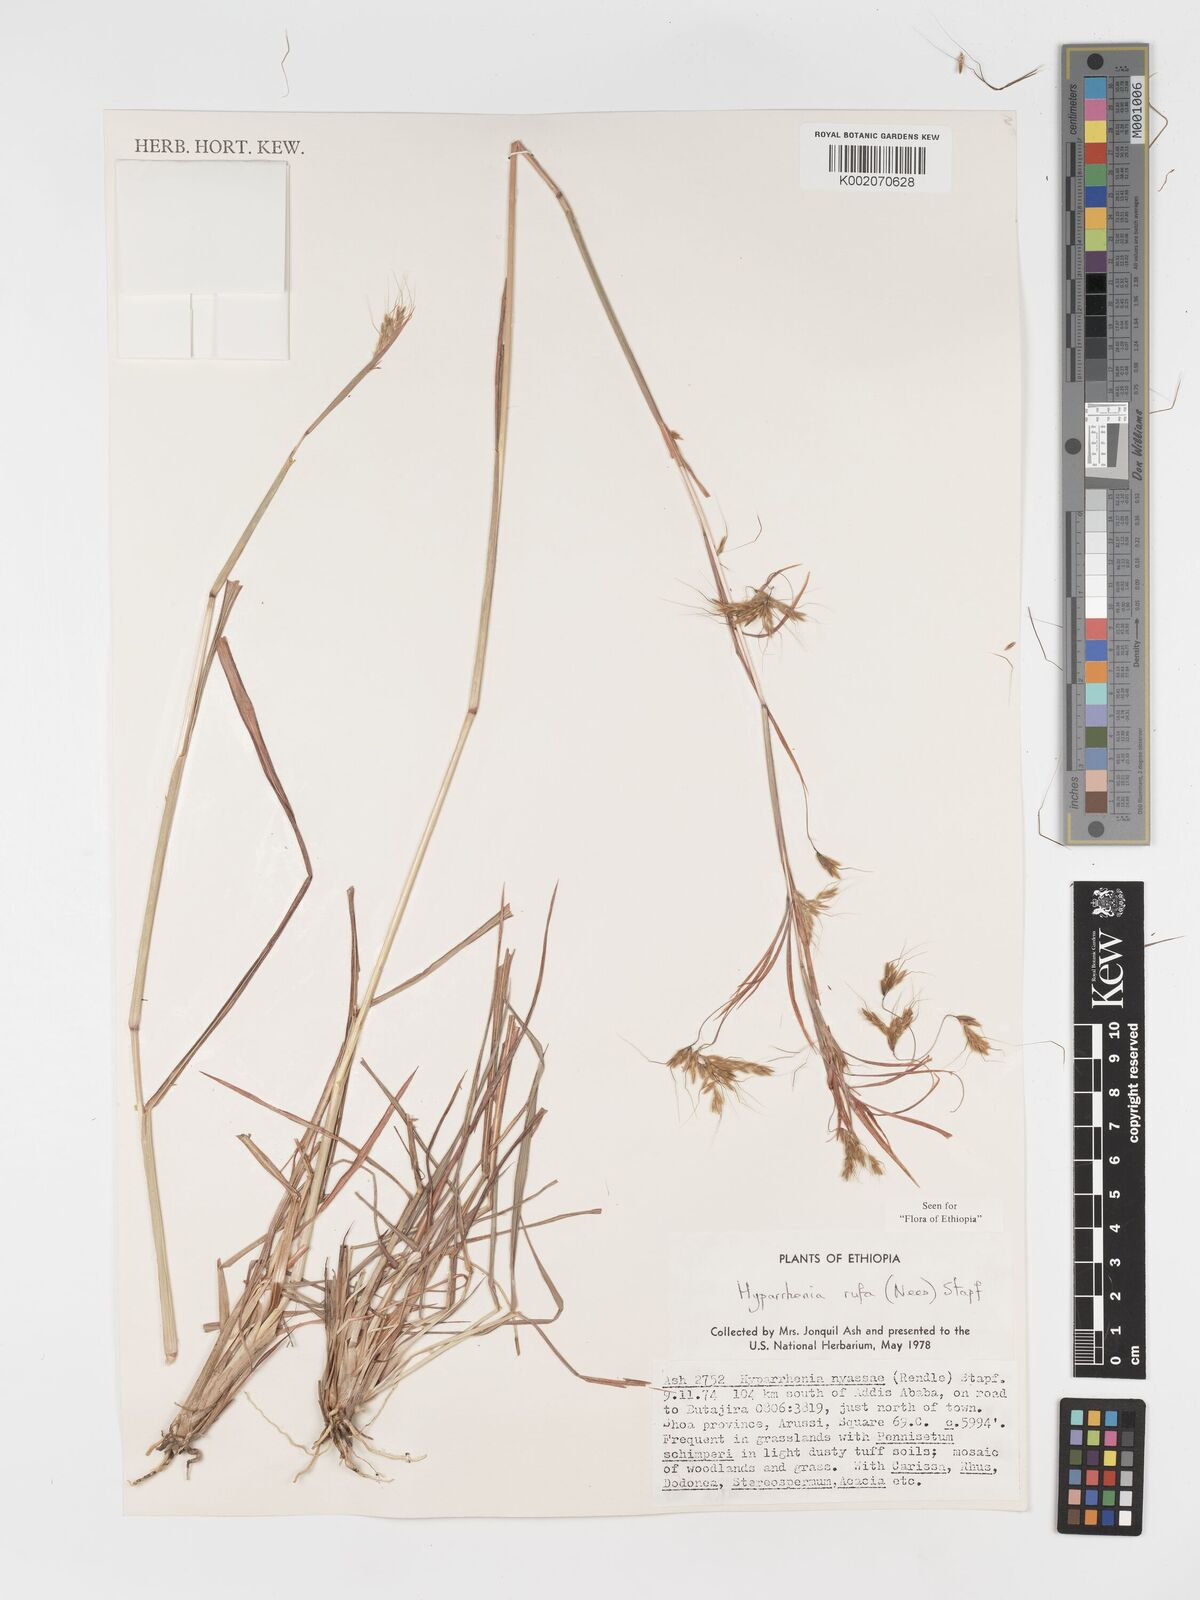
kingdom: Plantae
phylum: Tracheophyta
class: Liliopsida
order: Poales
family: Poaceae
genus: Hyparrhenia
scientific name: Hyparrhenia nyassae
